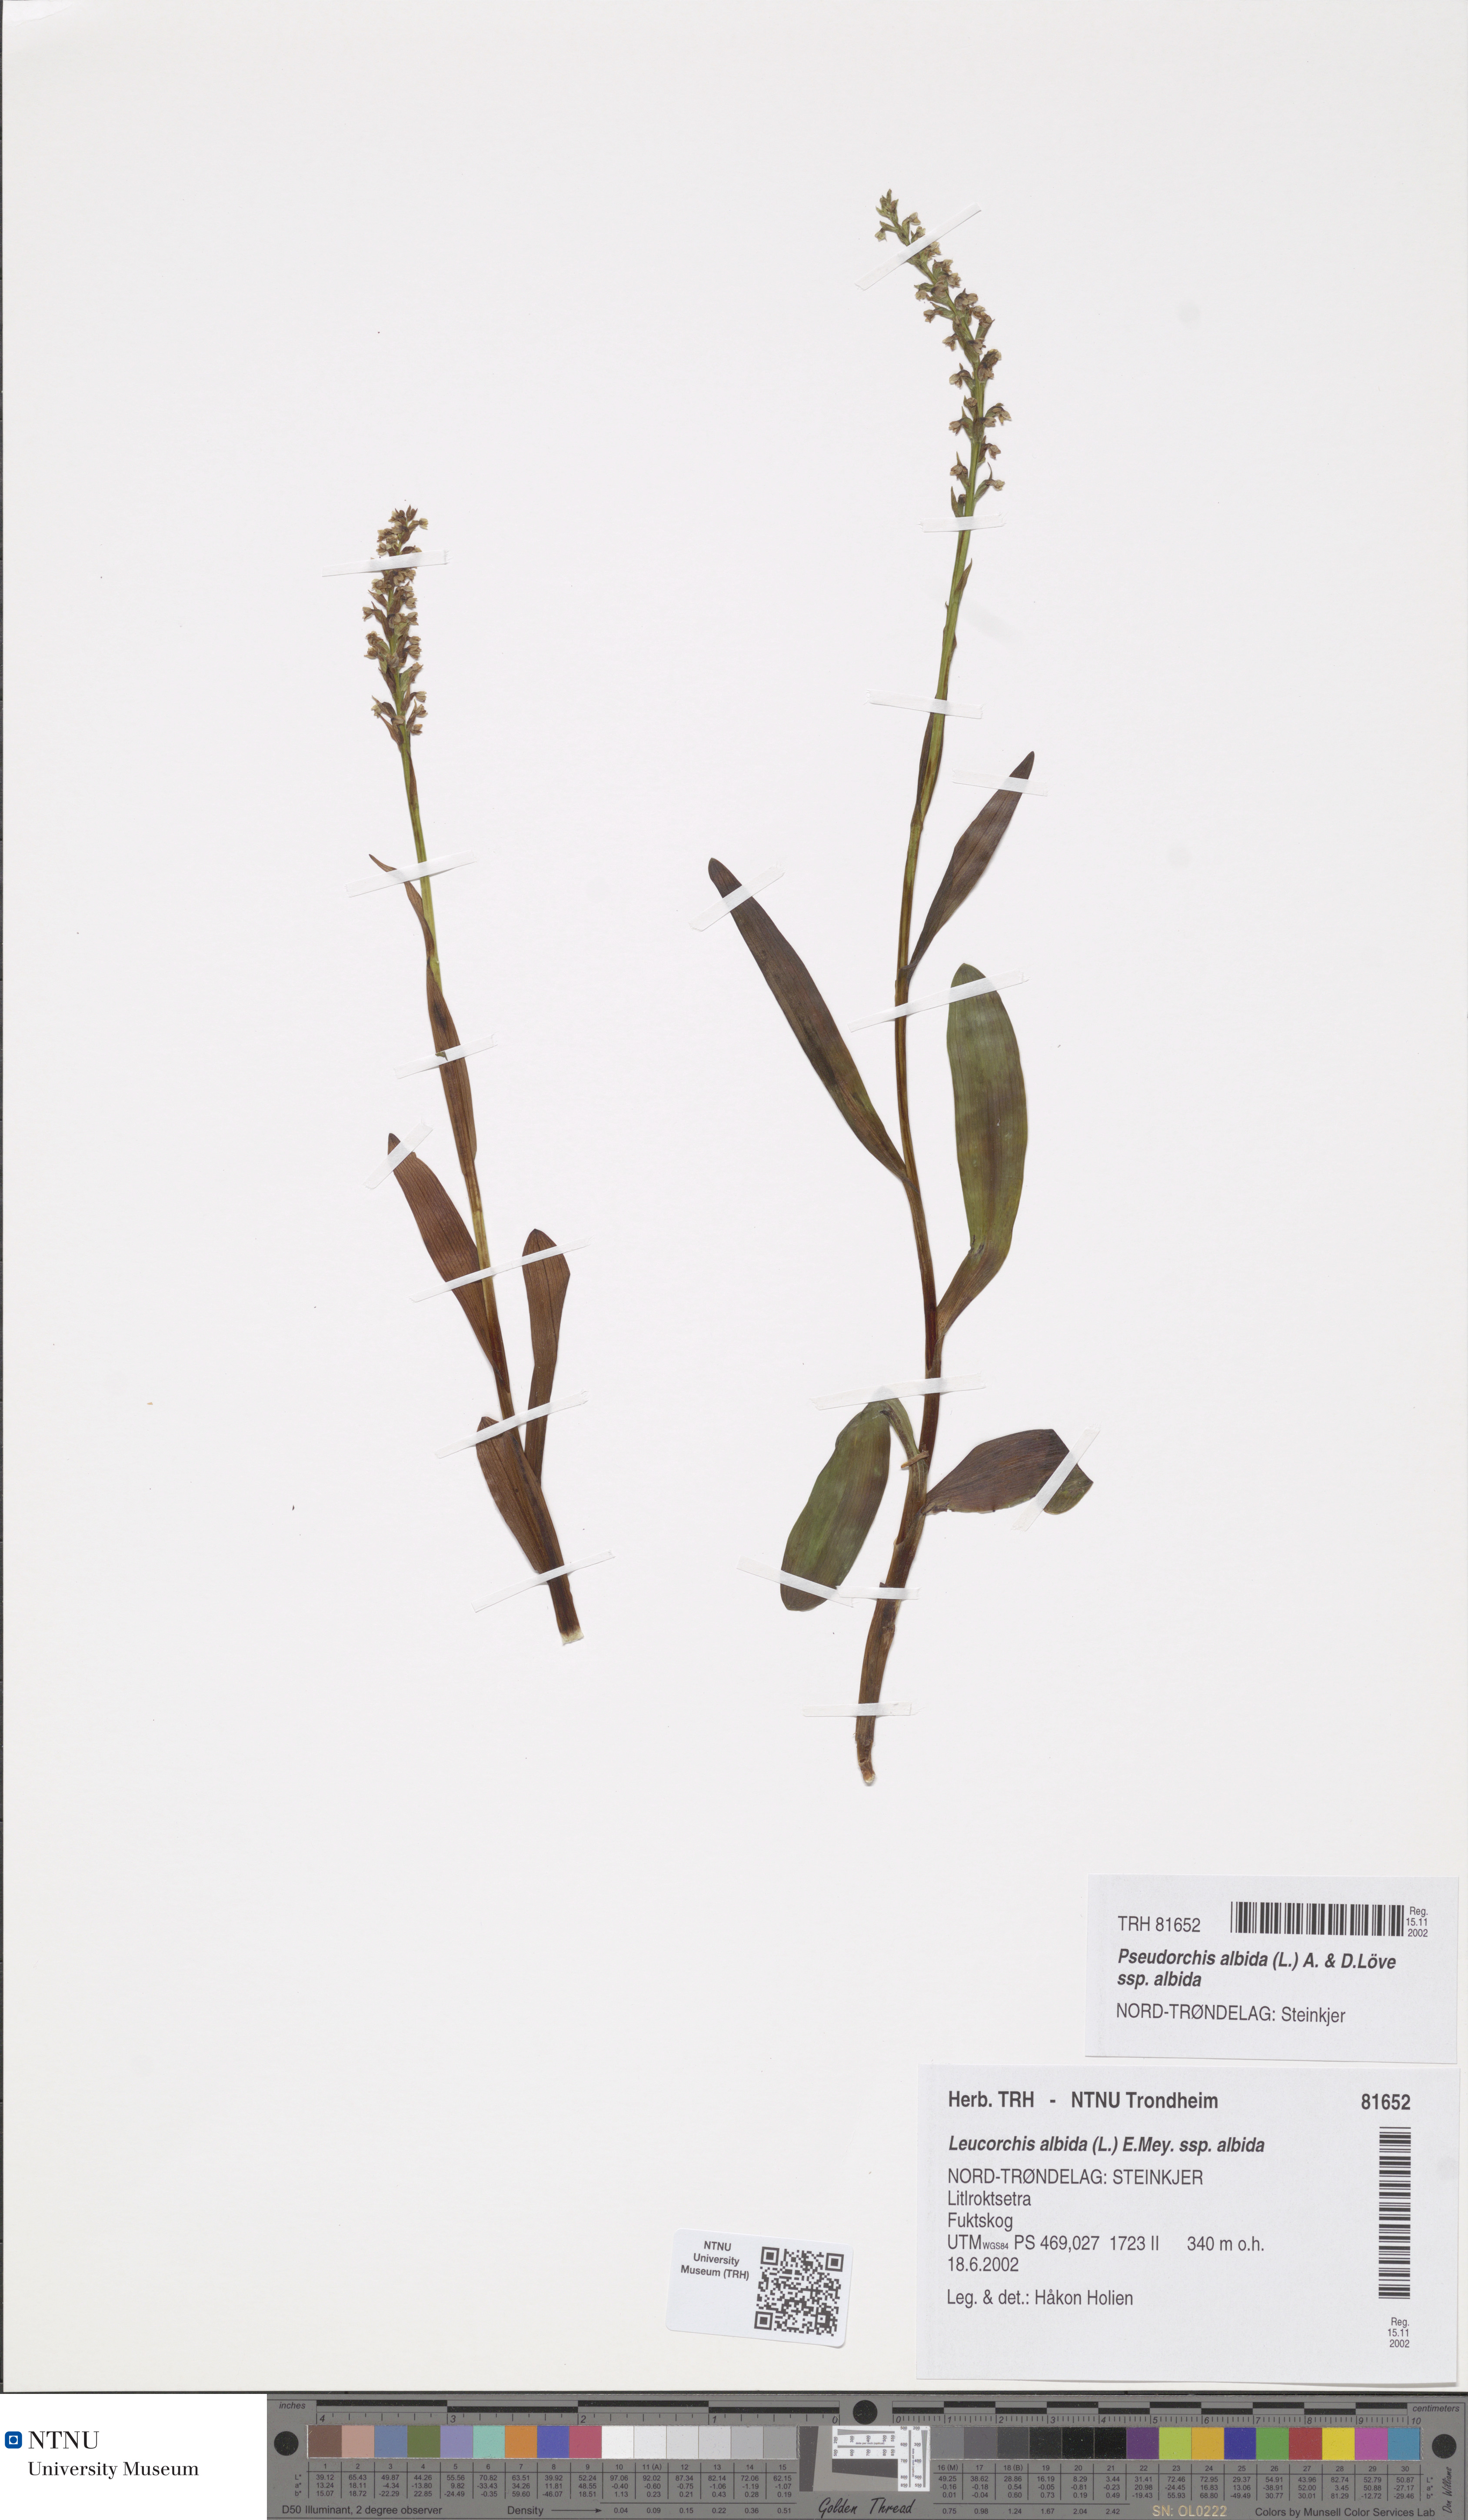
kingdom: Plantae
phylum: Tracheophyta
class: Liliopsida
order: Asparagales
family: Orchidaceae
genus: Pseudorchis
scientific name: Pseudorchis albida
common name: Small-white orchid
